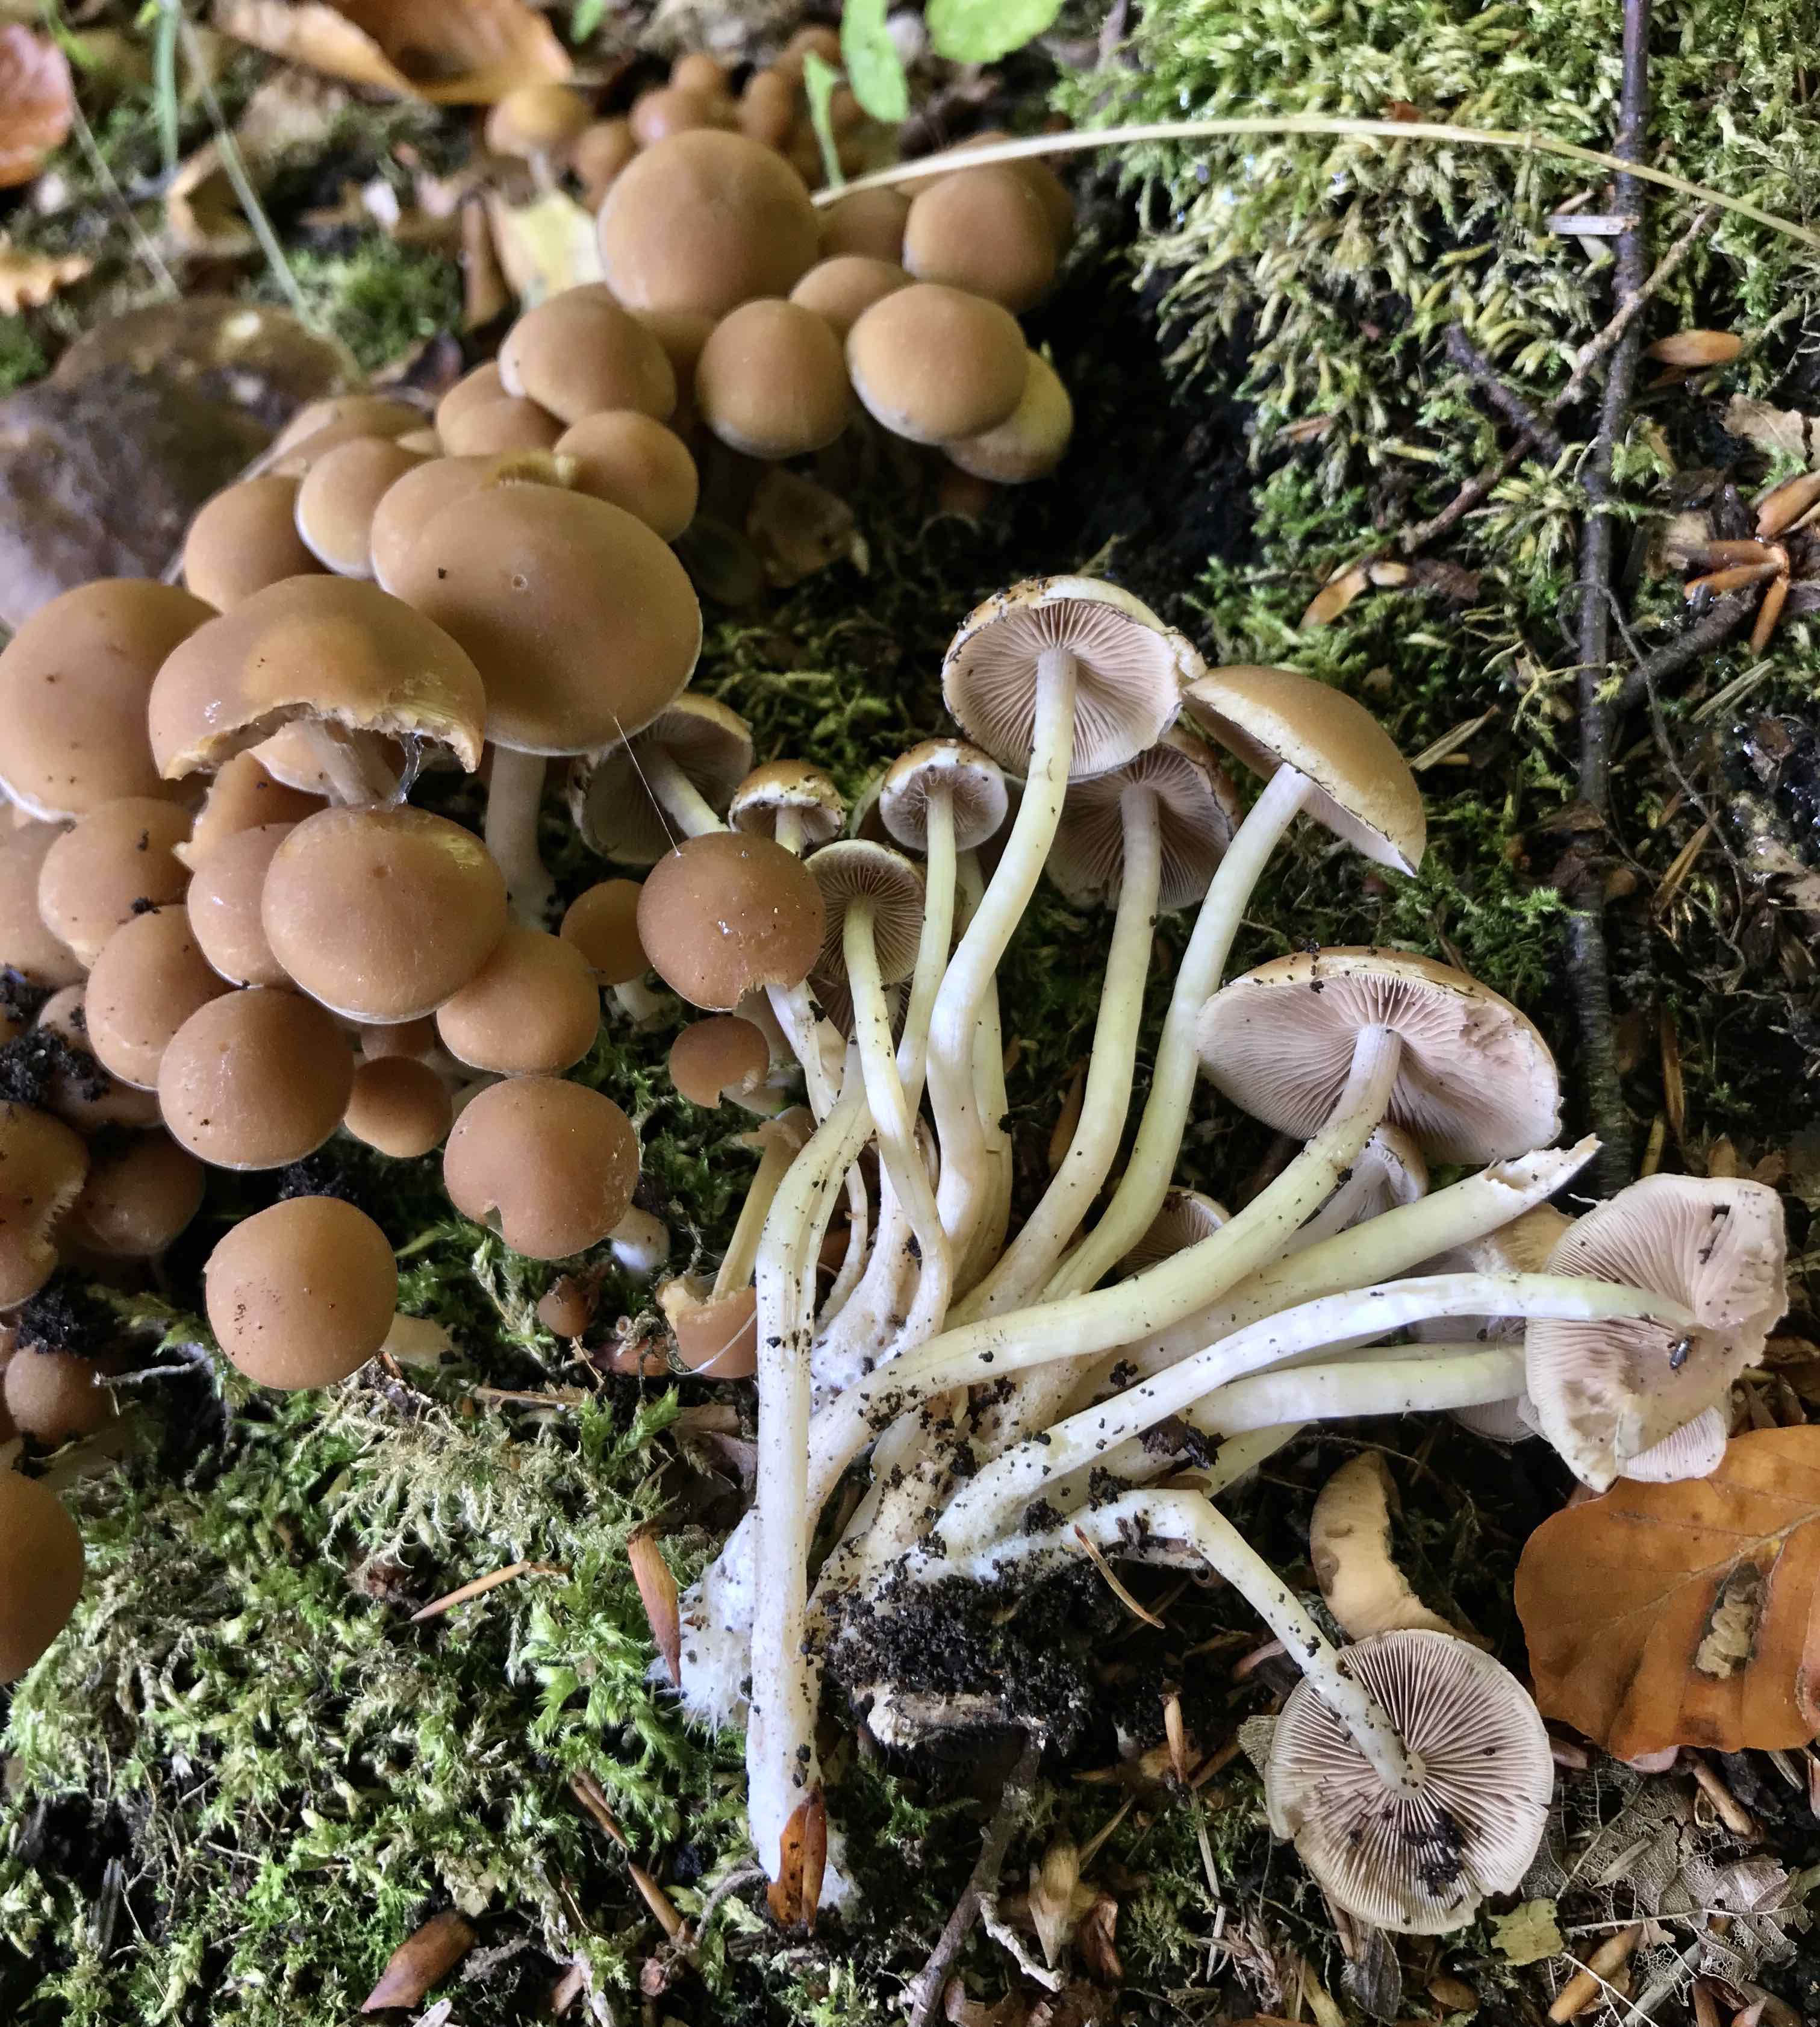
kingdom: Fungi
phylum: Basidiomycota
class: Agaricomycetes
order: Agaricales
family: Psathyrellaceae
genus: Psathyrella
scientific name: Psathyrella piluliformis
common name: lysstokket mørkhat
